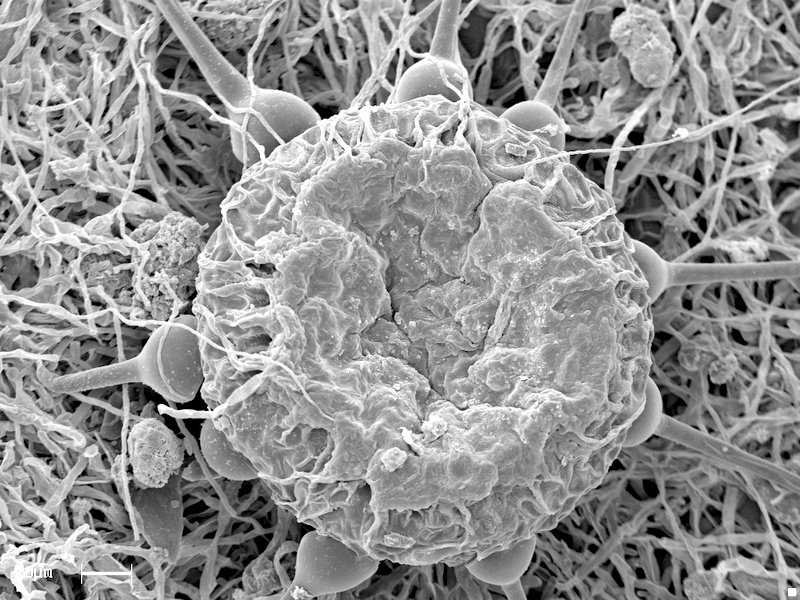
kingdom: Fungi
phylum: Ascomycota
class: Leotiomycetes
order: Helotiales
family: Erysiphaceae
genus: Phyllactinia
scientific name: Phyllactinia fraxini
